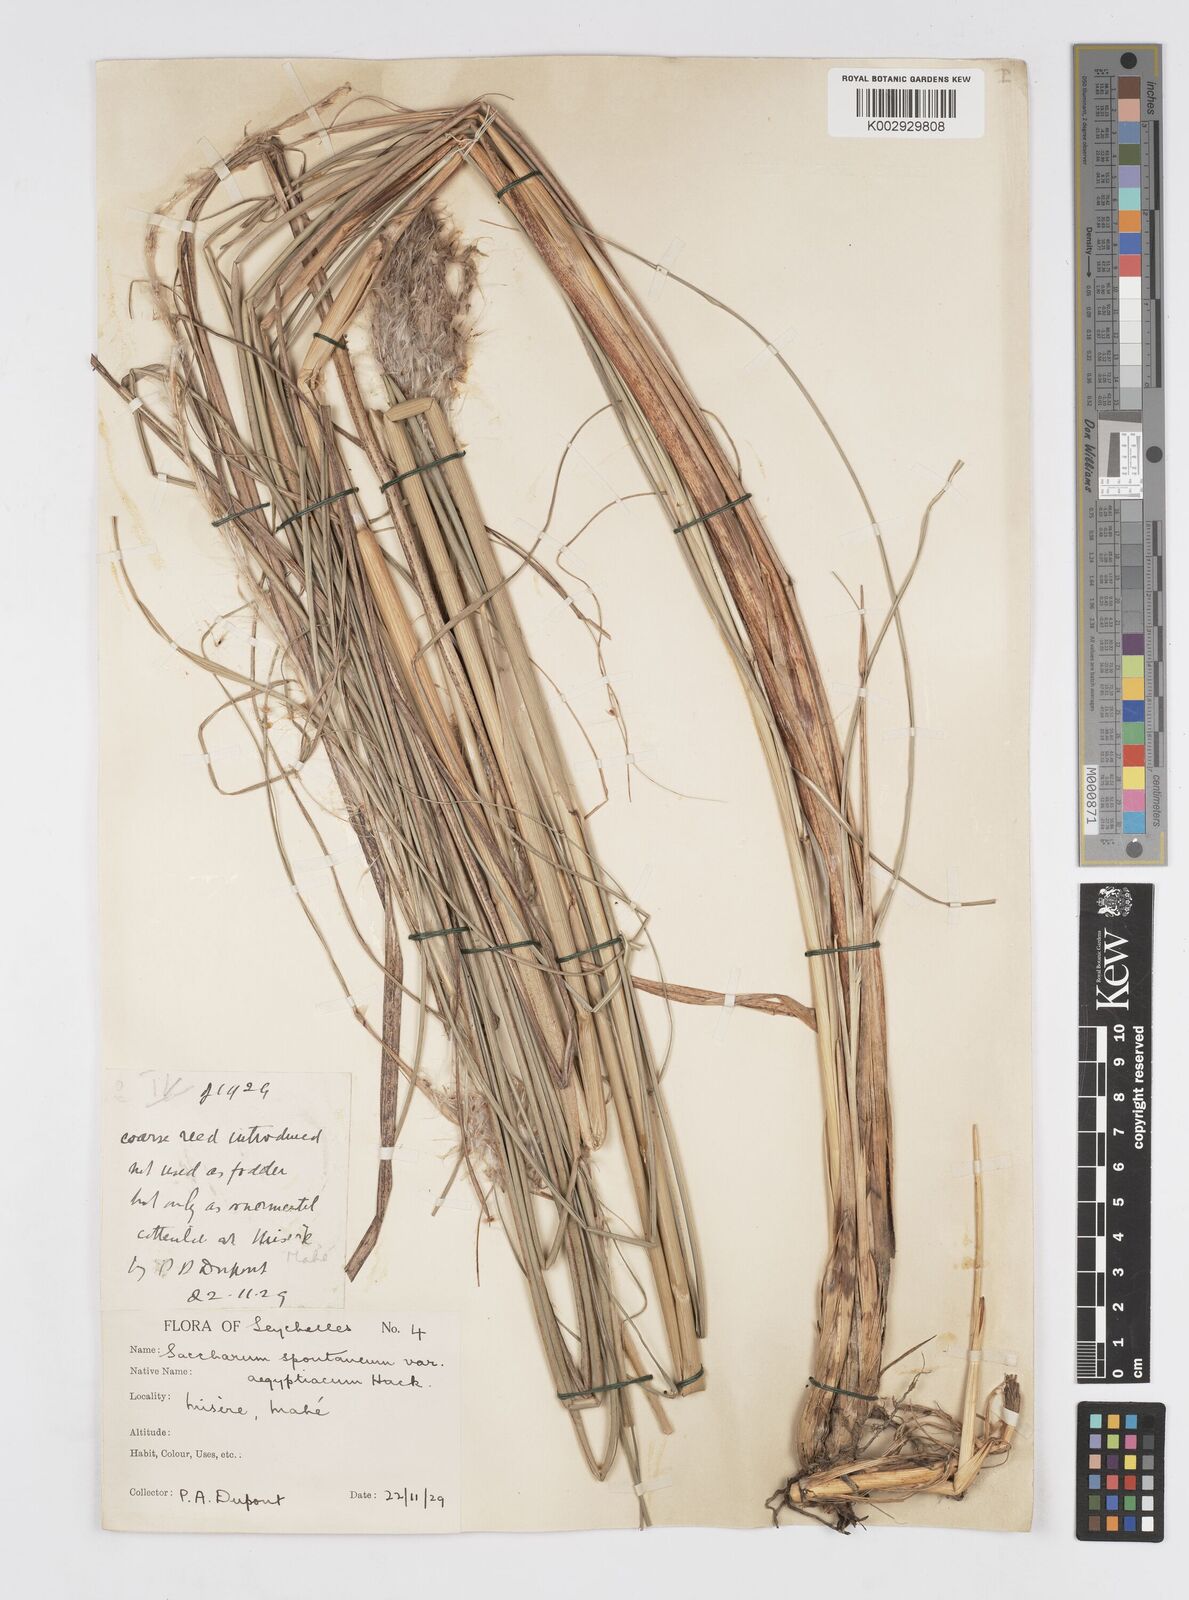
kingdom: Plantae
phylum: Tracheophyta
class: Liliopsida
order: Poales
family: Poaceae
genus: Saccharum
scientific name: Saccharum spontaneum
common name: Wild sugarcane
